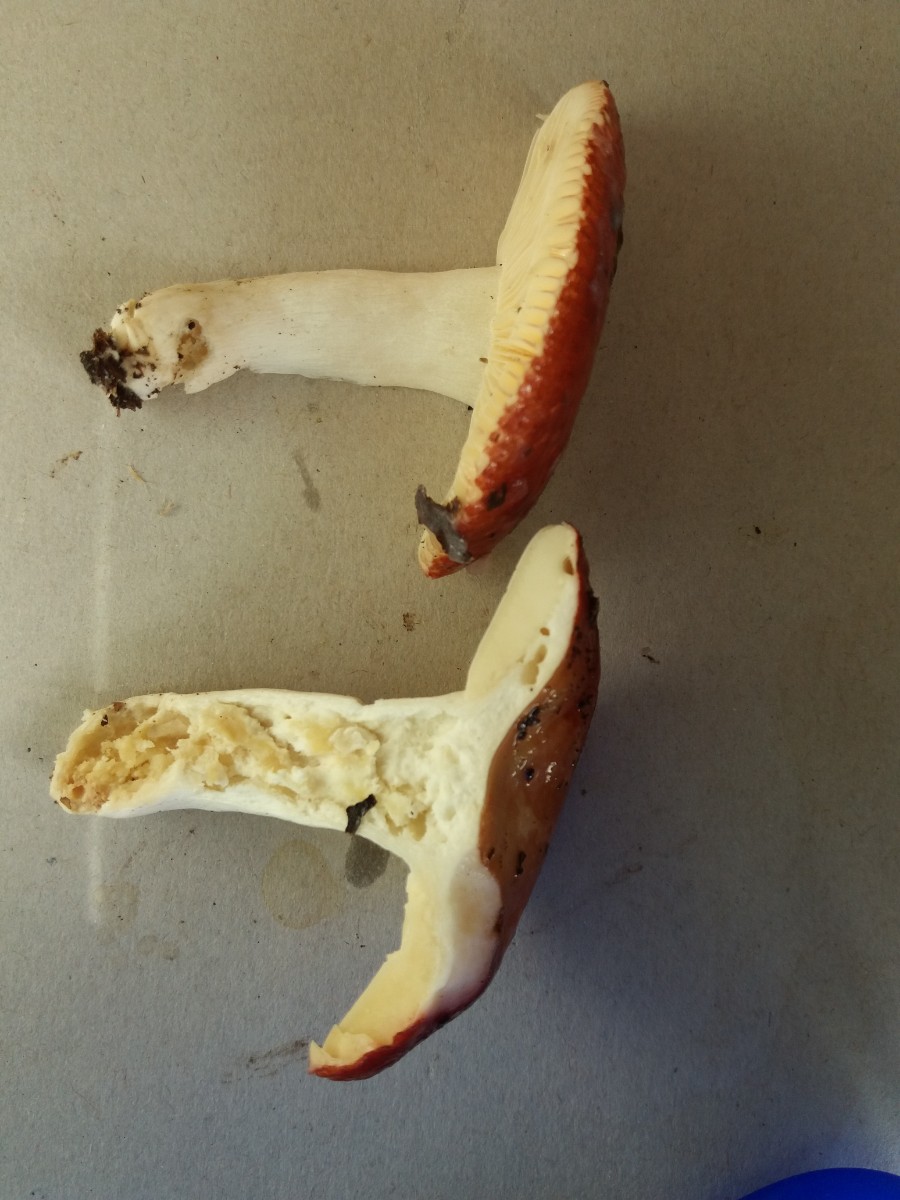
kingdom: Fungi
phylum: Basidiomycota
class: Agaricomycetes
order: Russulales
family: Russulaceae
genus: Russula
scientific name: Russula velenovskyi
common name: orangerød skørhat
